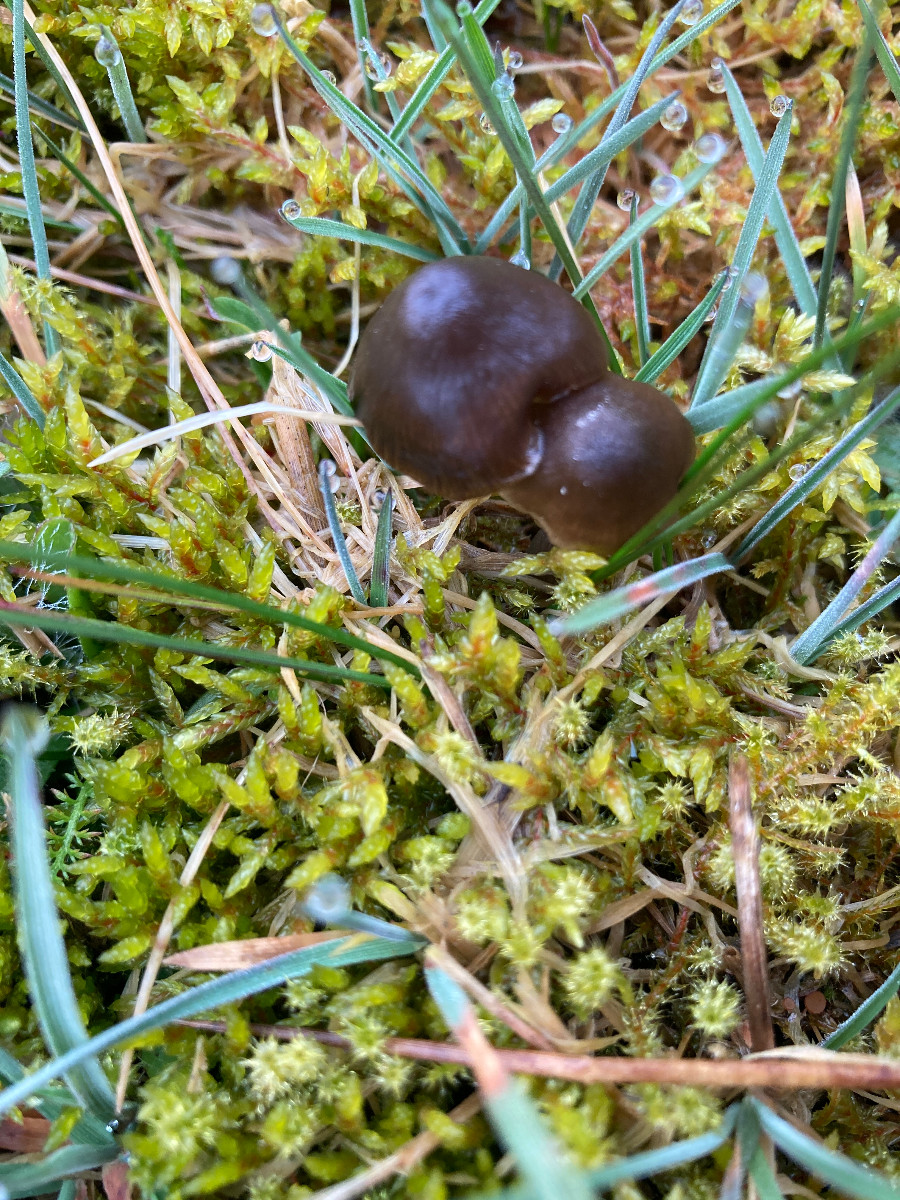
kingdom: Fungi
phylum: Basidiomycota
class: Agaricomycetes
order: Agaricales
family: Entolomataceae
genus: Entoloma
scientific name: Entoloma
